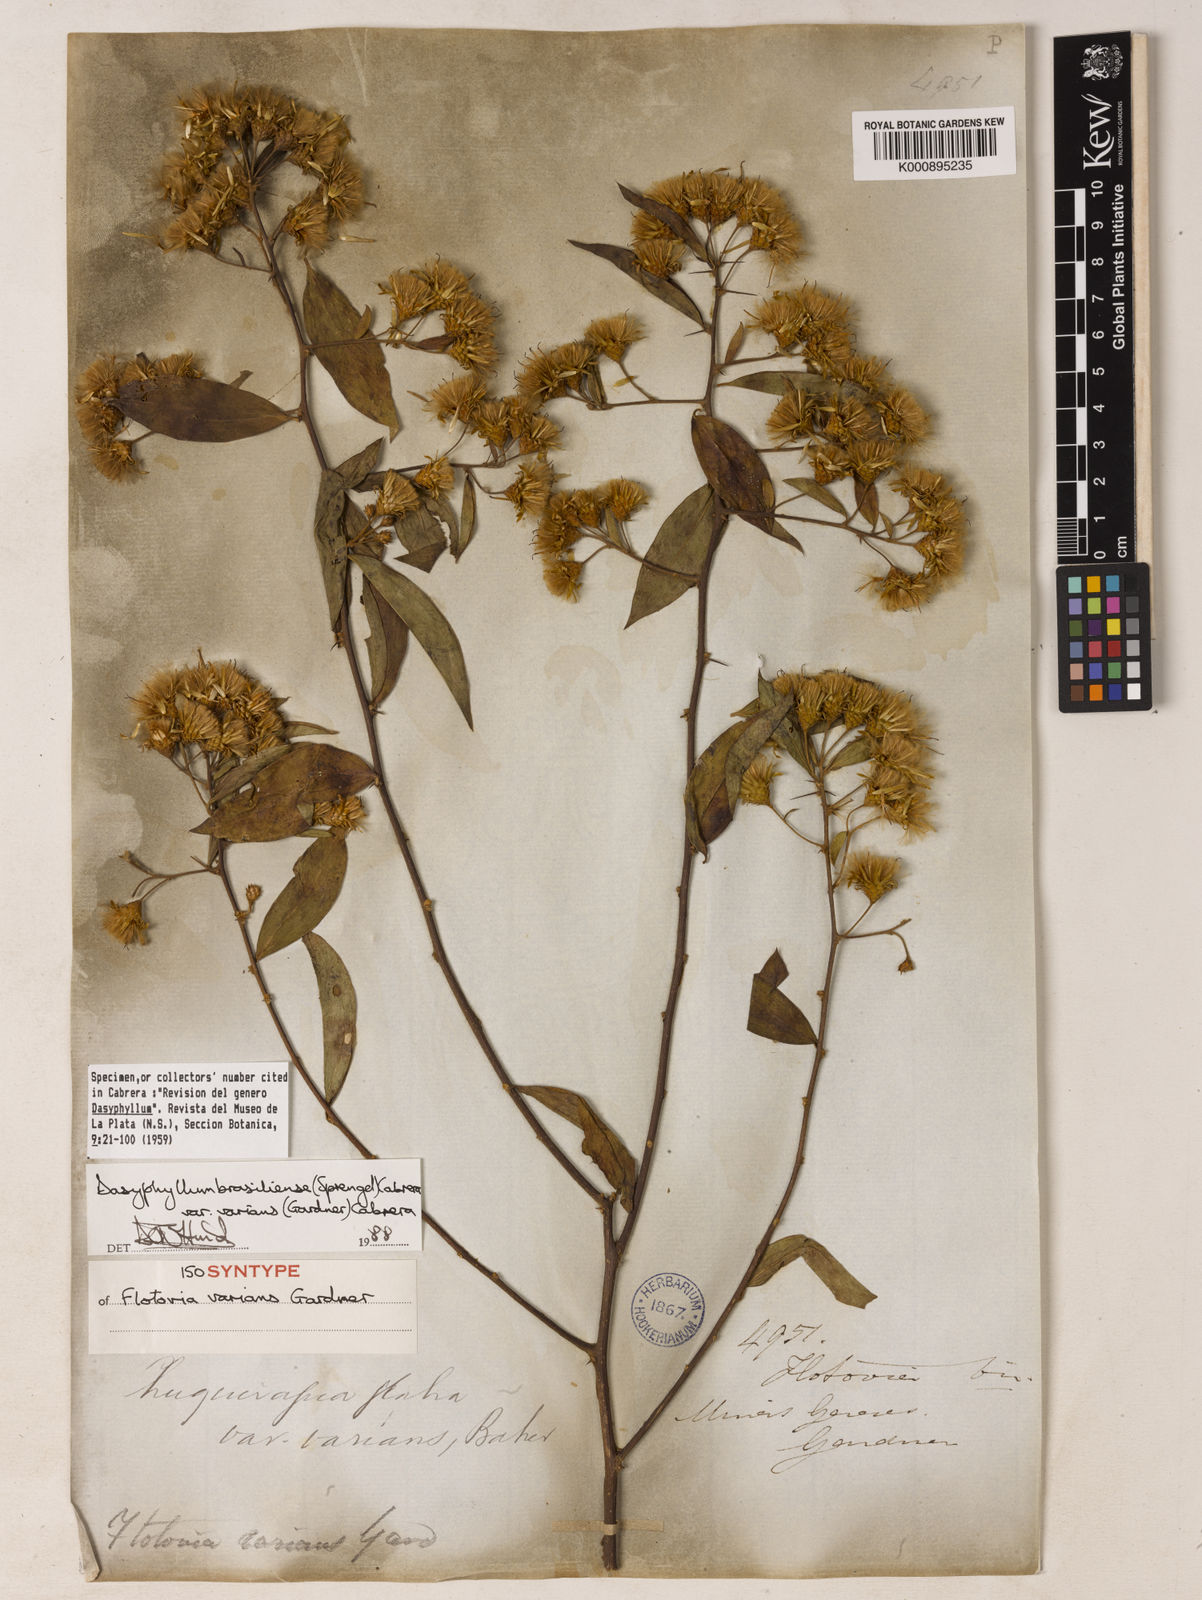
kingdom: Plantae
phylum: Tracheophyta
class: Magnoliopsida
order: Asterales
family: Asteraceae
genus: Dasyphyllum
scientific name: Dasyphyllum varians
